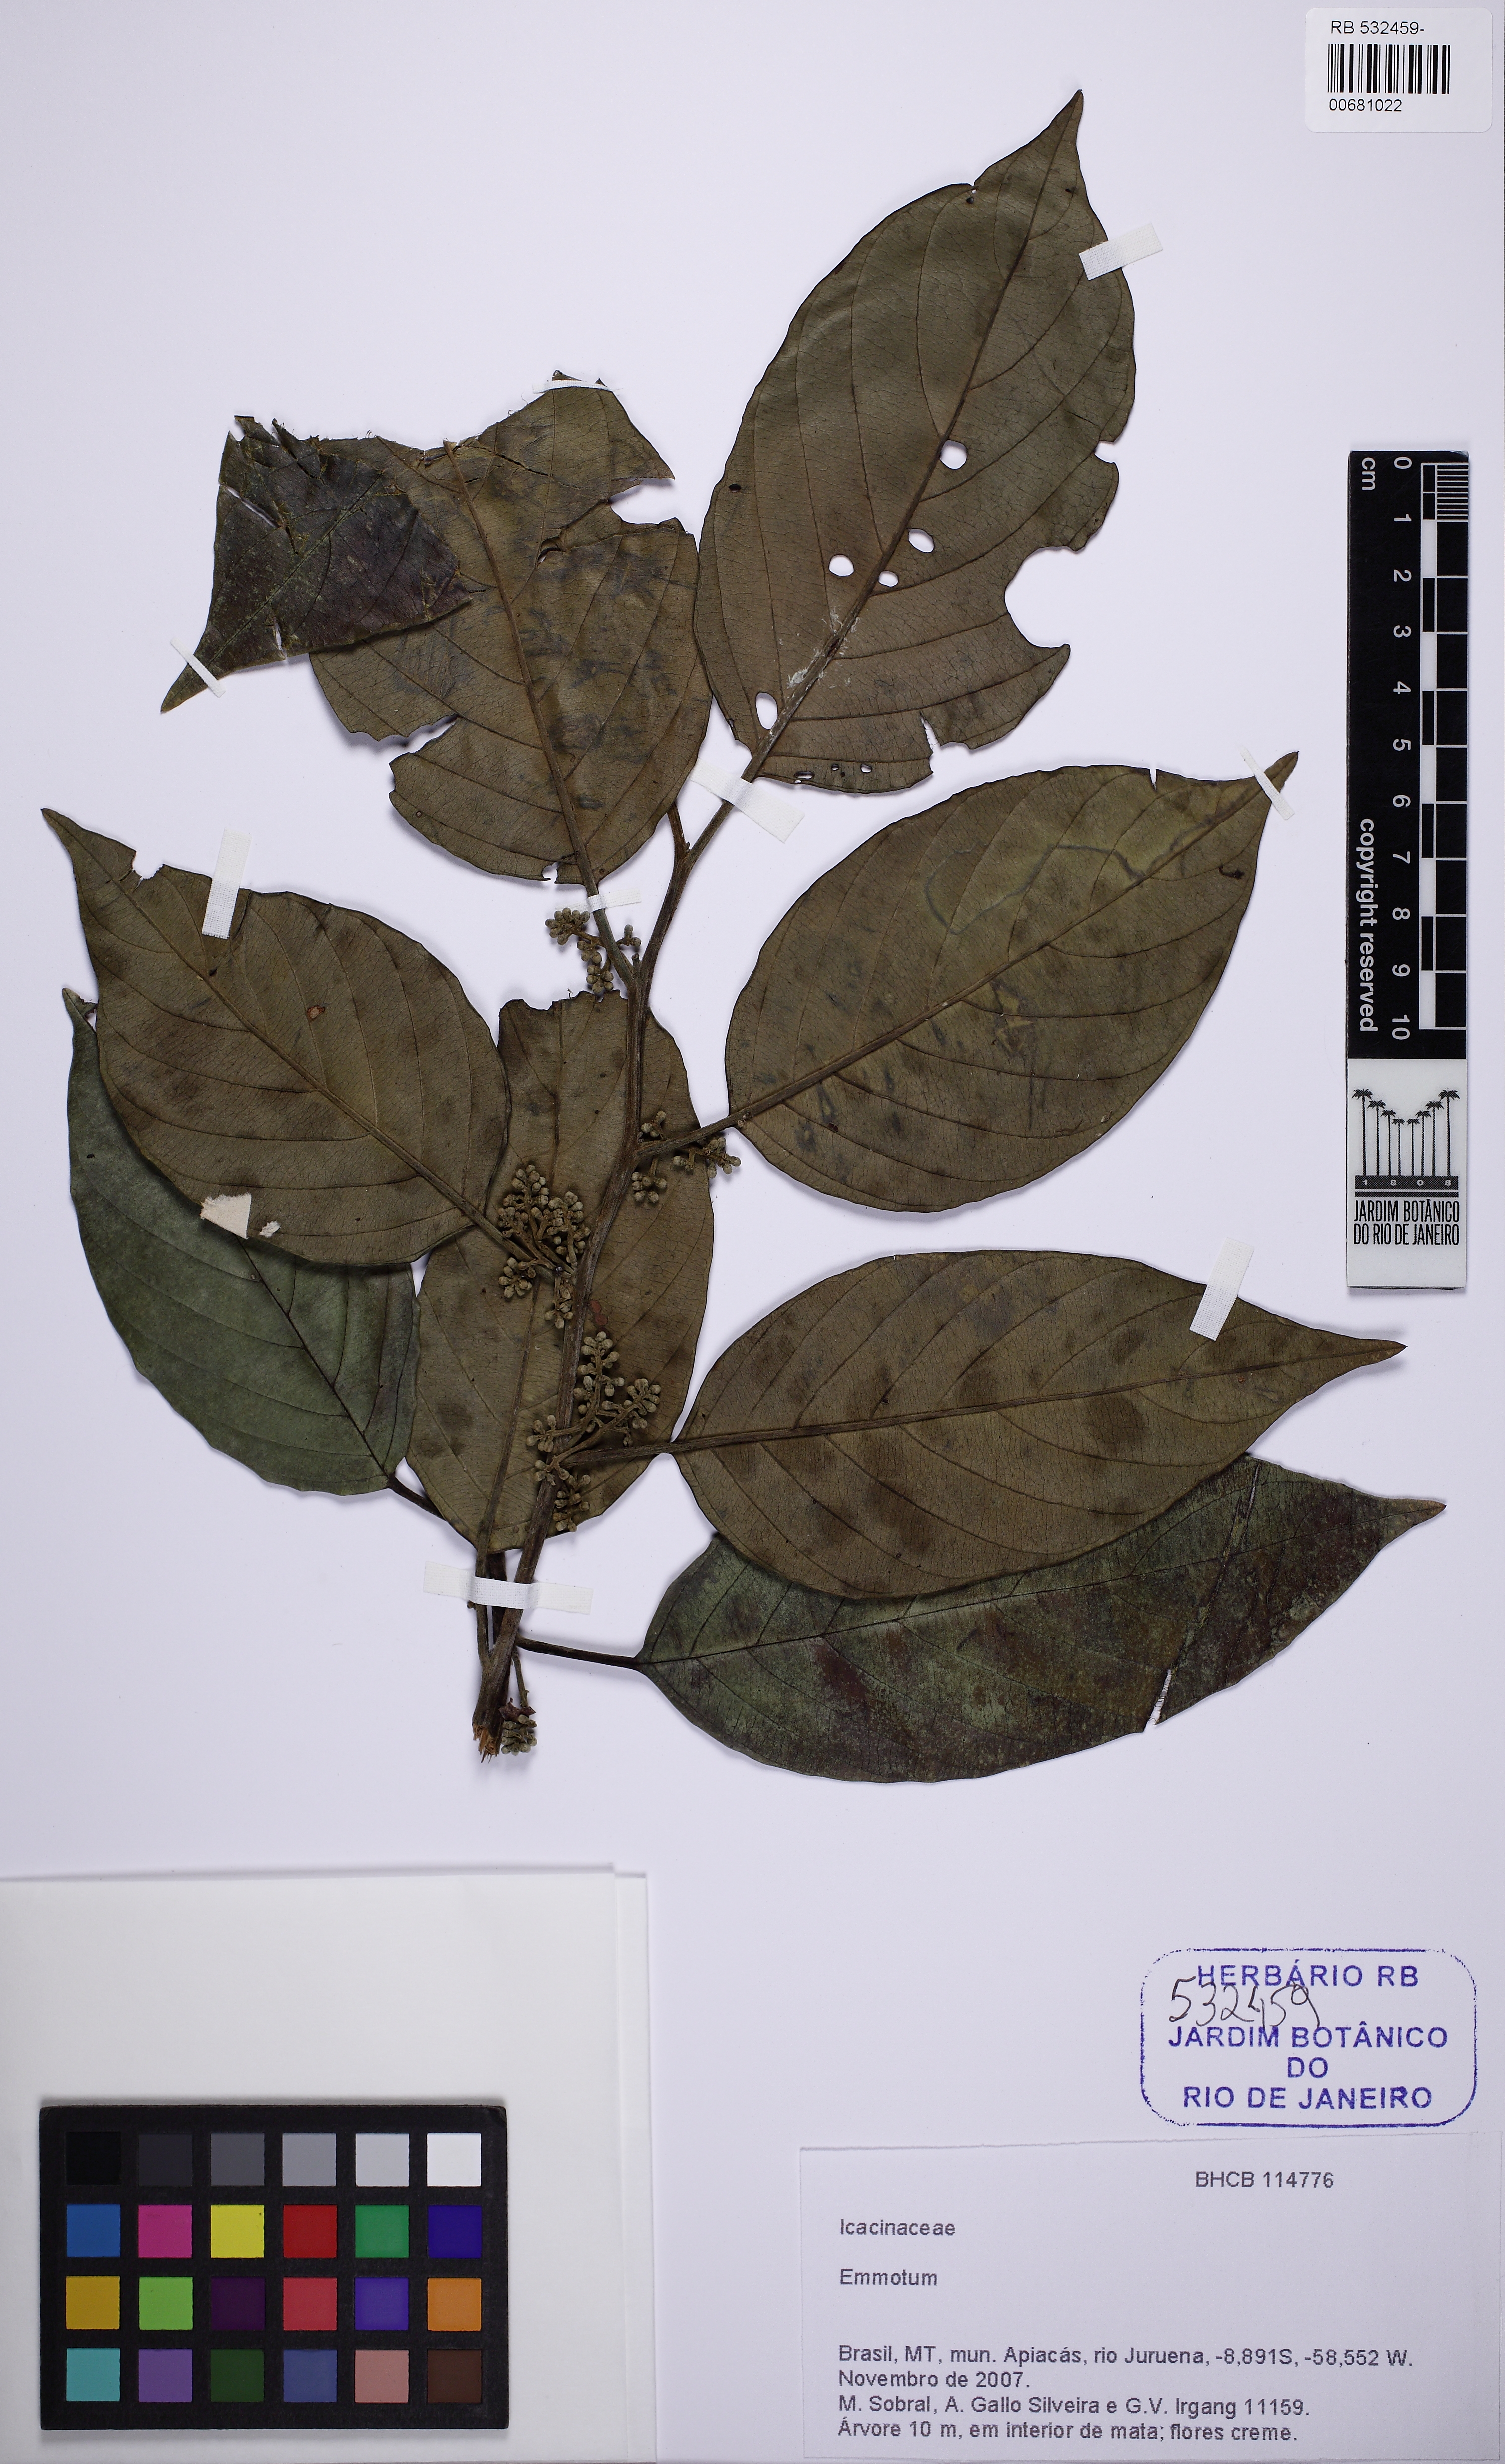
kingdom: Plantae
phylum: Tracheophyta
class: Magnoliopsida
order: Icacinales
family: Icacinaceae
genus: Emmotum
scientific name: Emmotum
